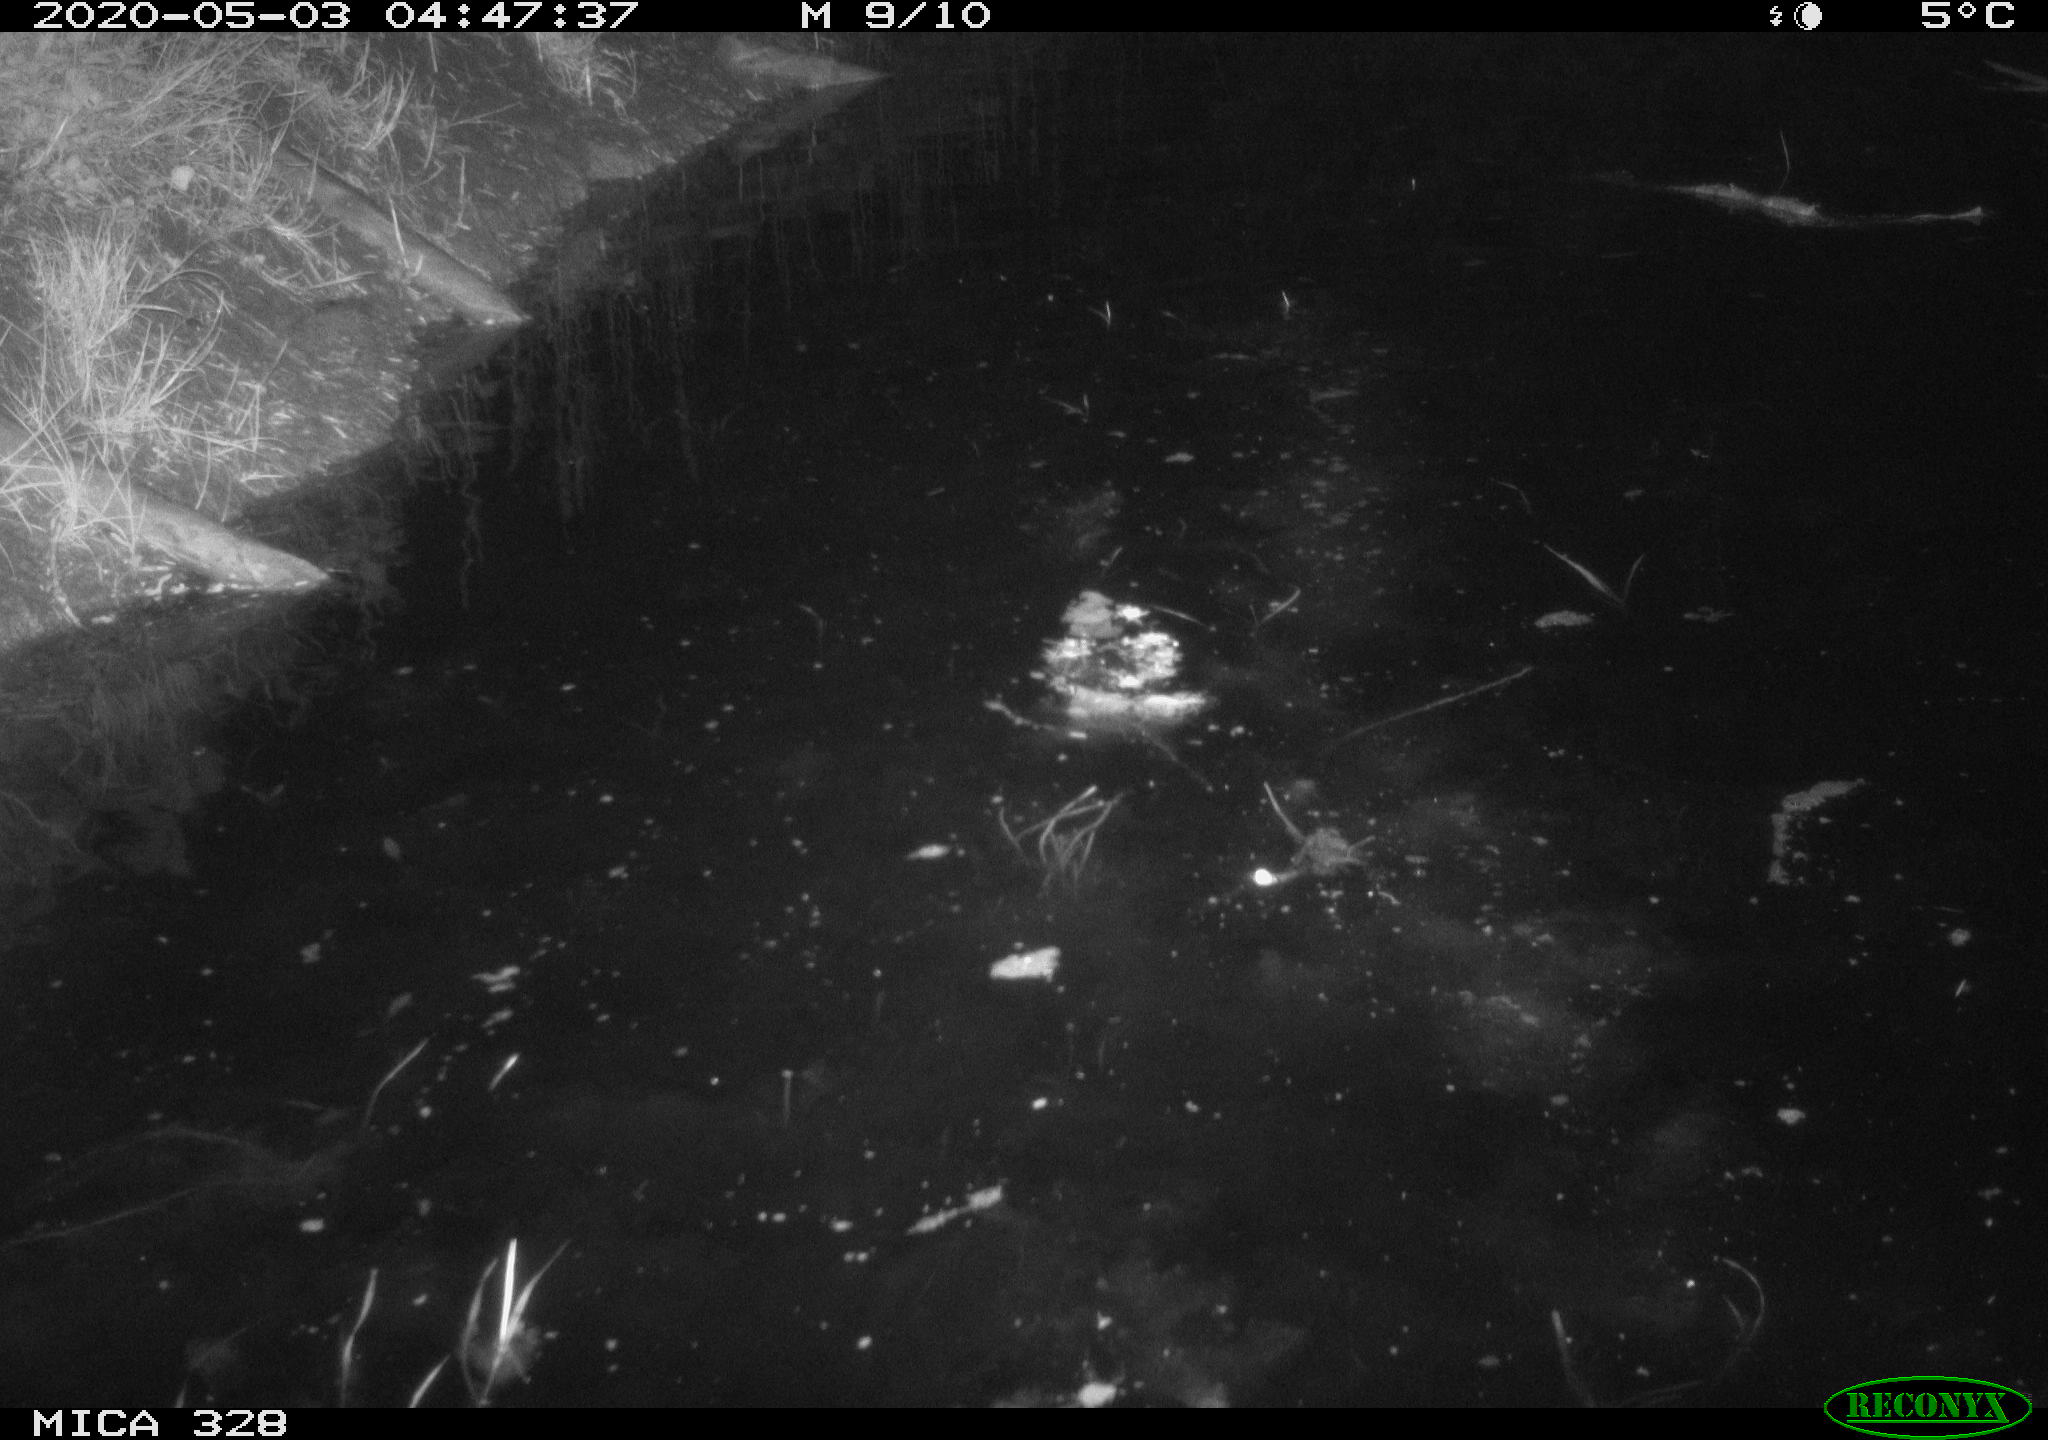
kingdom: Animalia
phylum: Chordata
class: Aves
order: Anseriformes
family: Anatidae
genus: Anas
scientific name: Anas platyrhynchos
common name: Mallard
